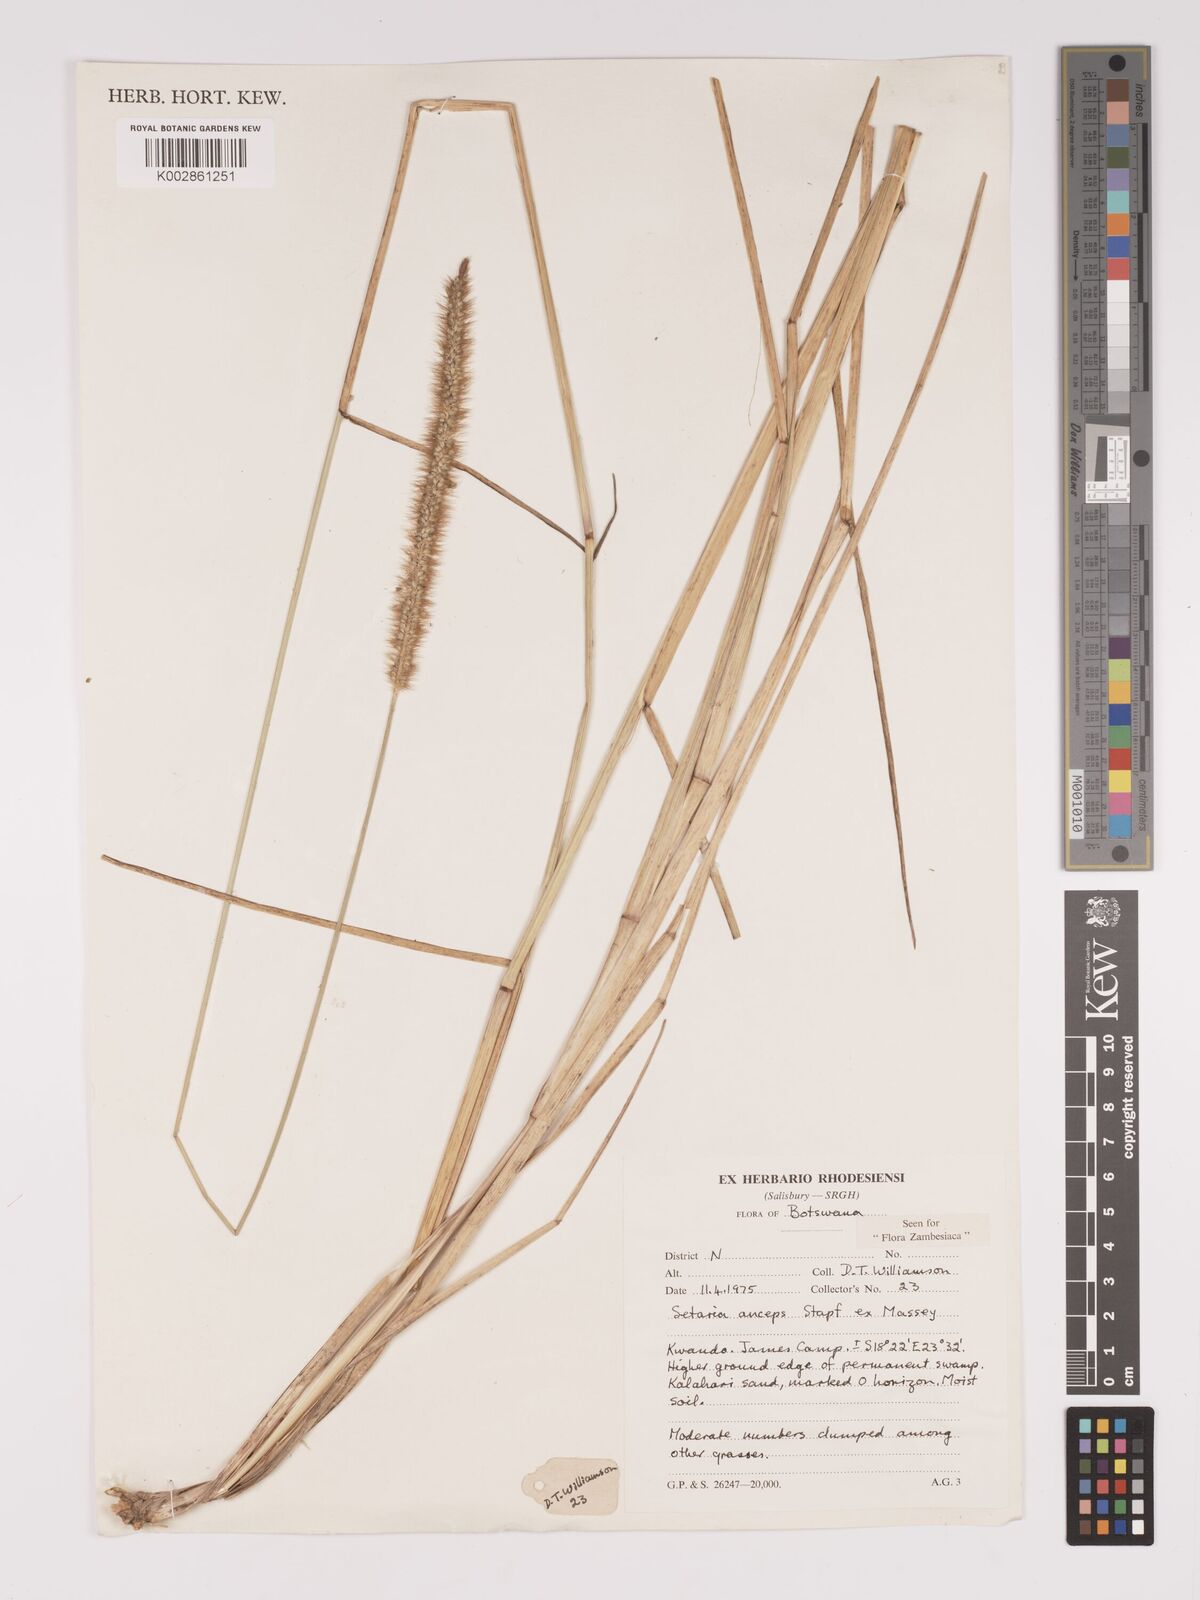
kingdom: Plantae
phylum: Tracheophyta
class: Liliopsida
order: Poales
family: Poaceae
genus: Setaria
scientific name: Setaria sphacelata
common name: African bristlegrass
